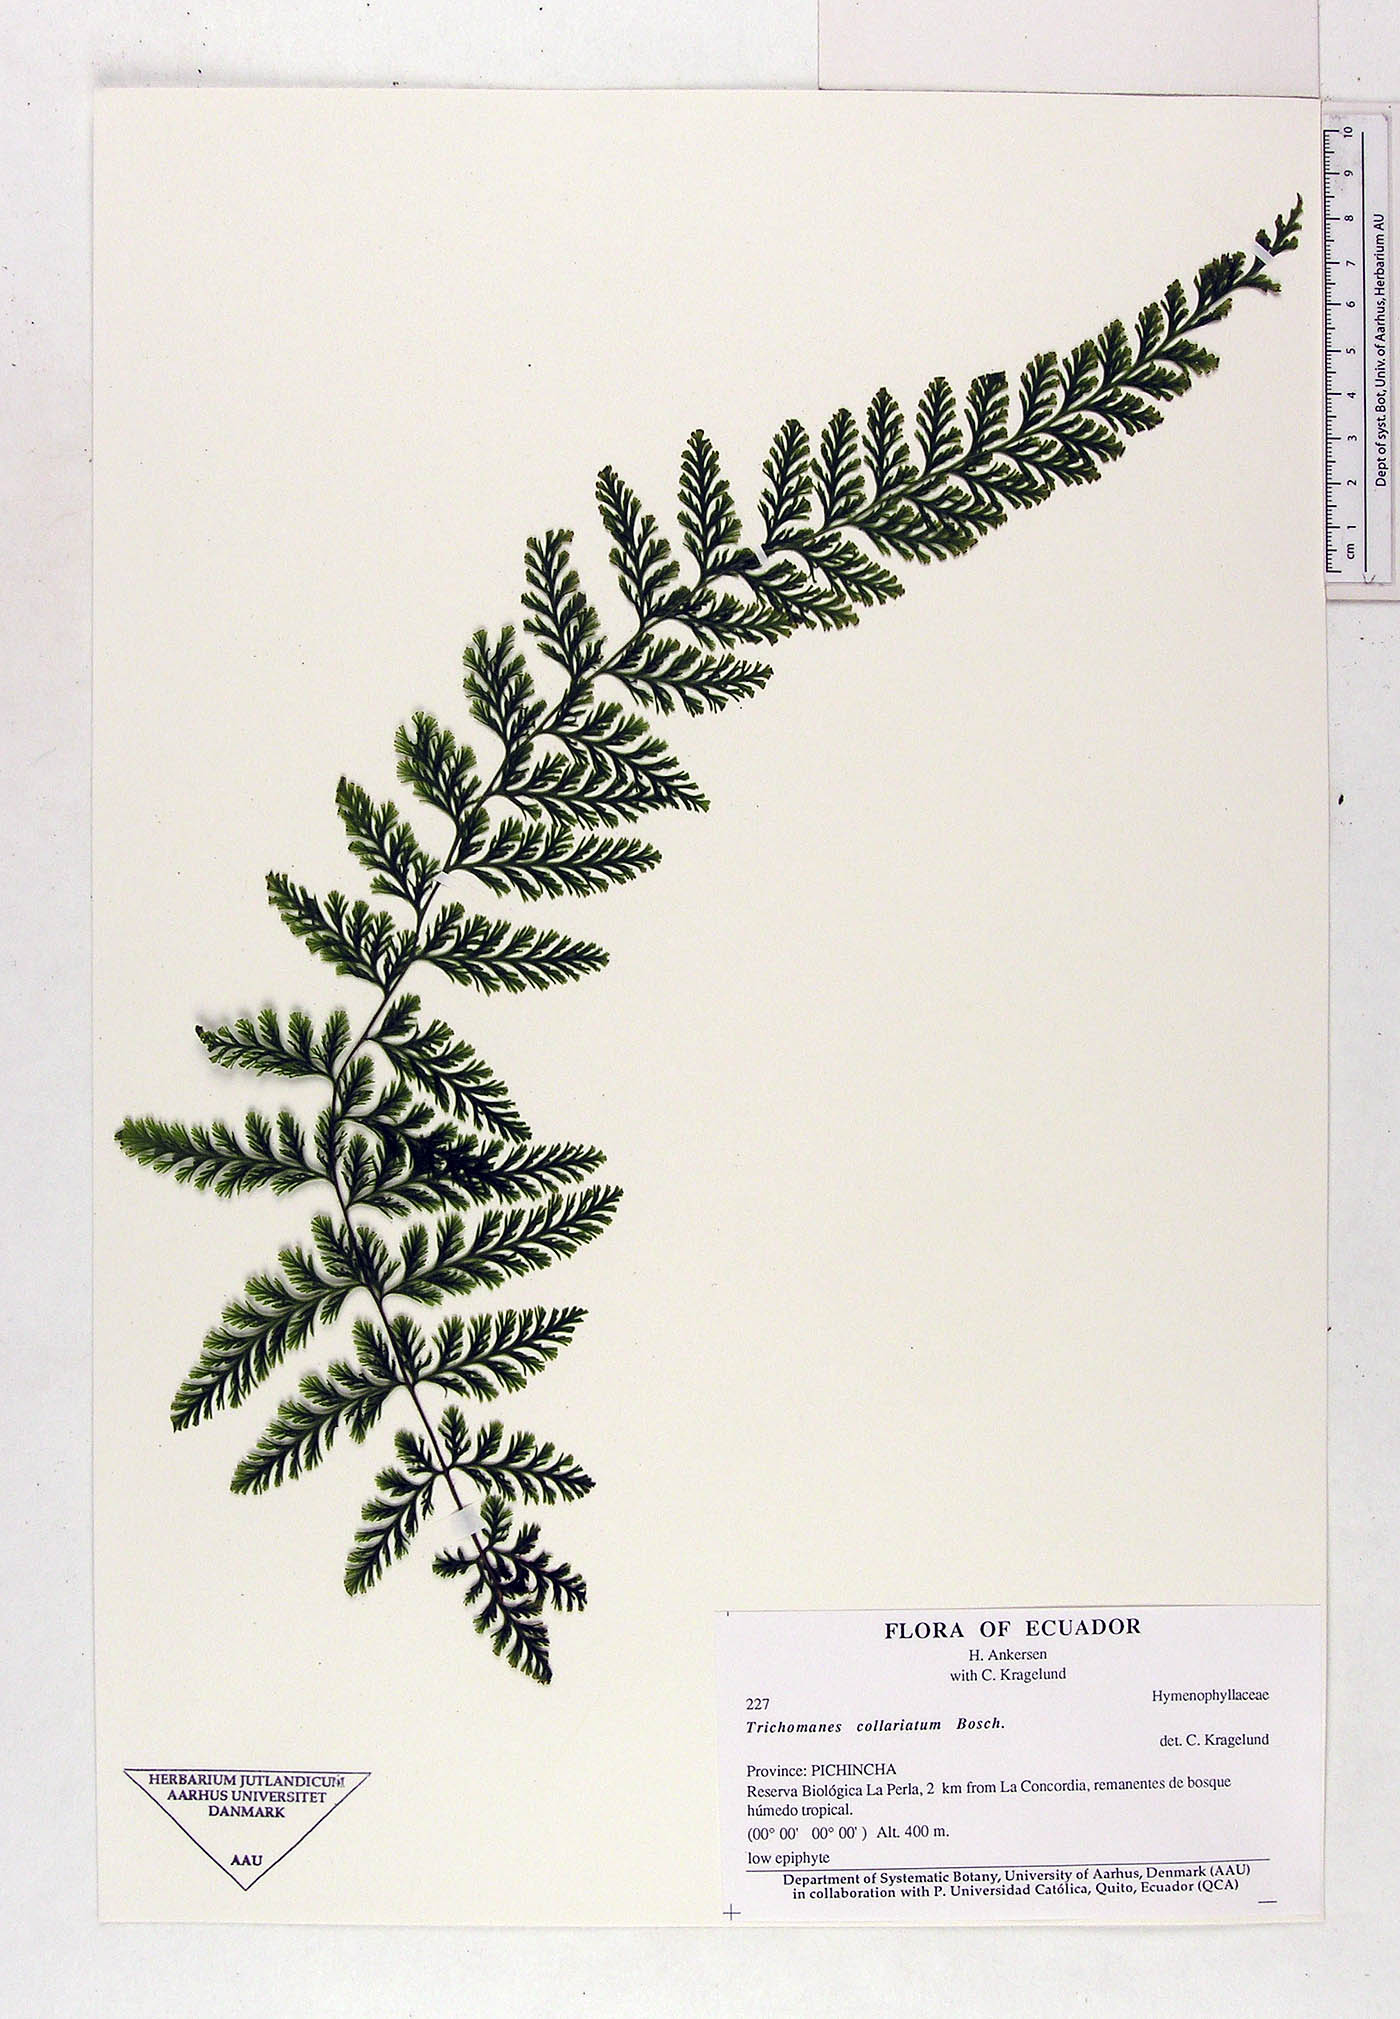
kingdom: Plantae
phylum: Tracheophyta
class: Polypodiopsida
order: Hymenophyllales
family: Hymenophyllaceae
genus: Vandenboschia
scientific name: Vandenboschia collariata
